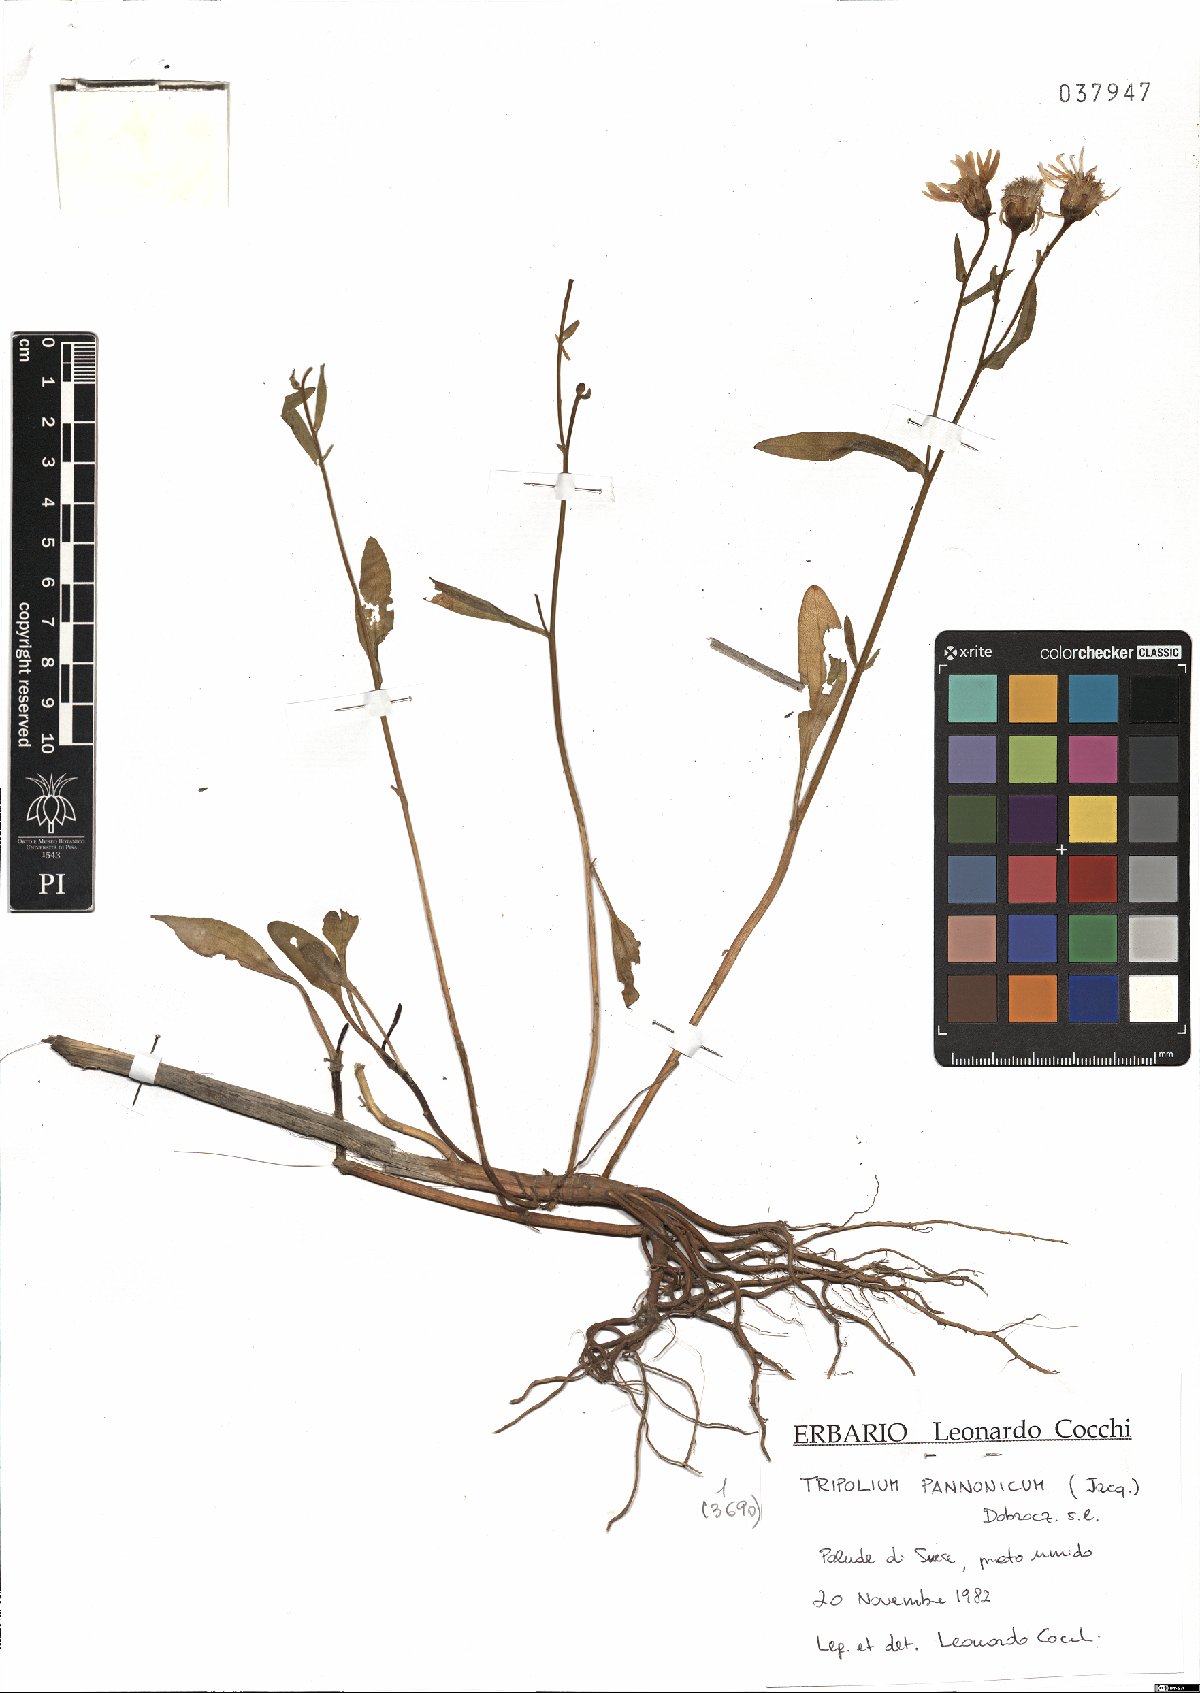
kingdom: Plantae
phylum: Tracheophyta
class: Magnoliopsida
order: Fabales
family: Fabaceae
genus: Trifolium
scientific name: Trifolium pannonicum
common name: Hungarian clover
